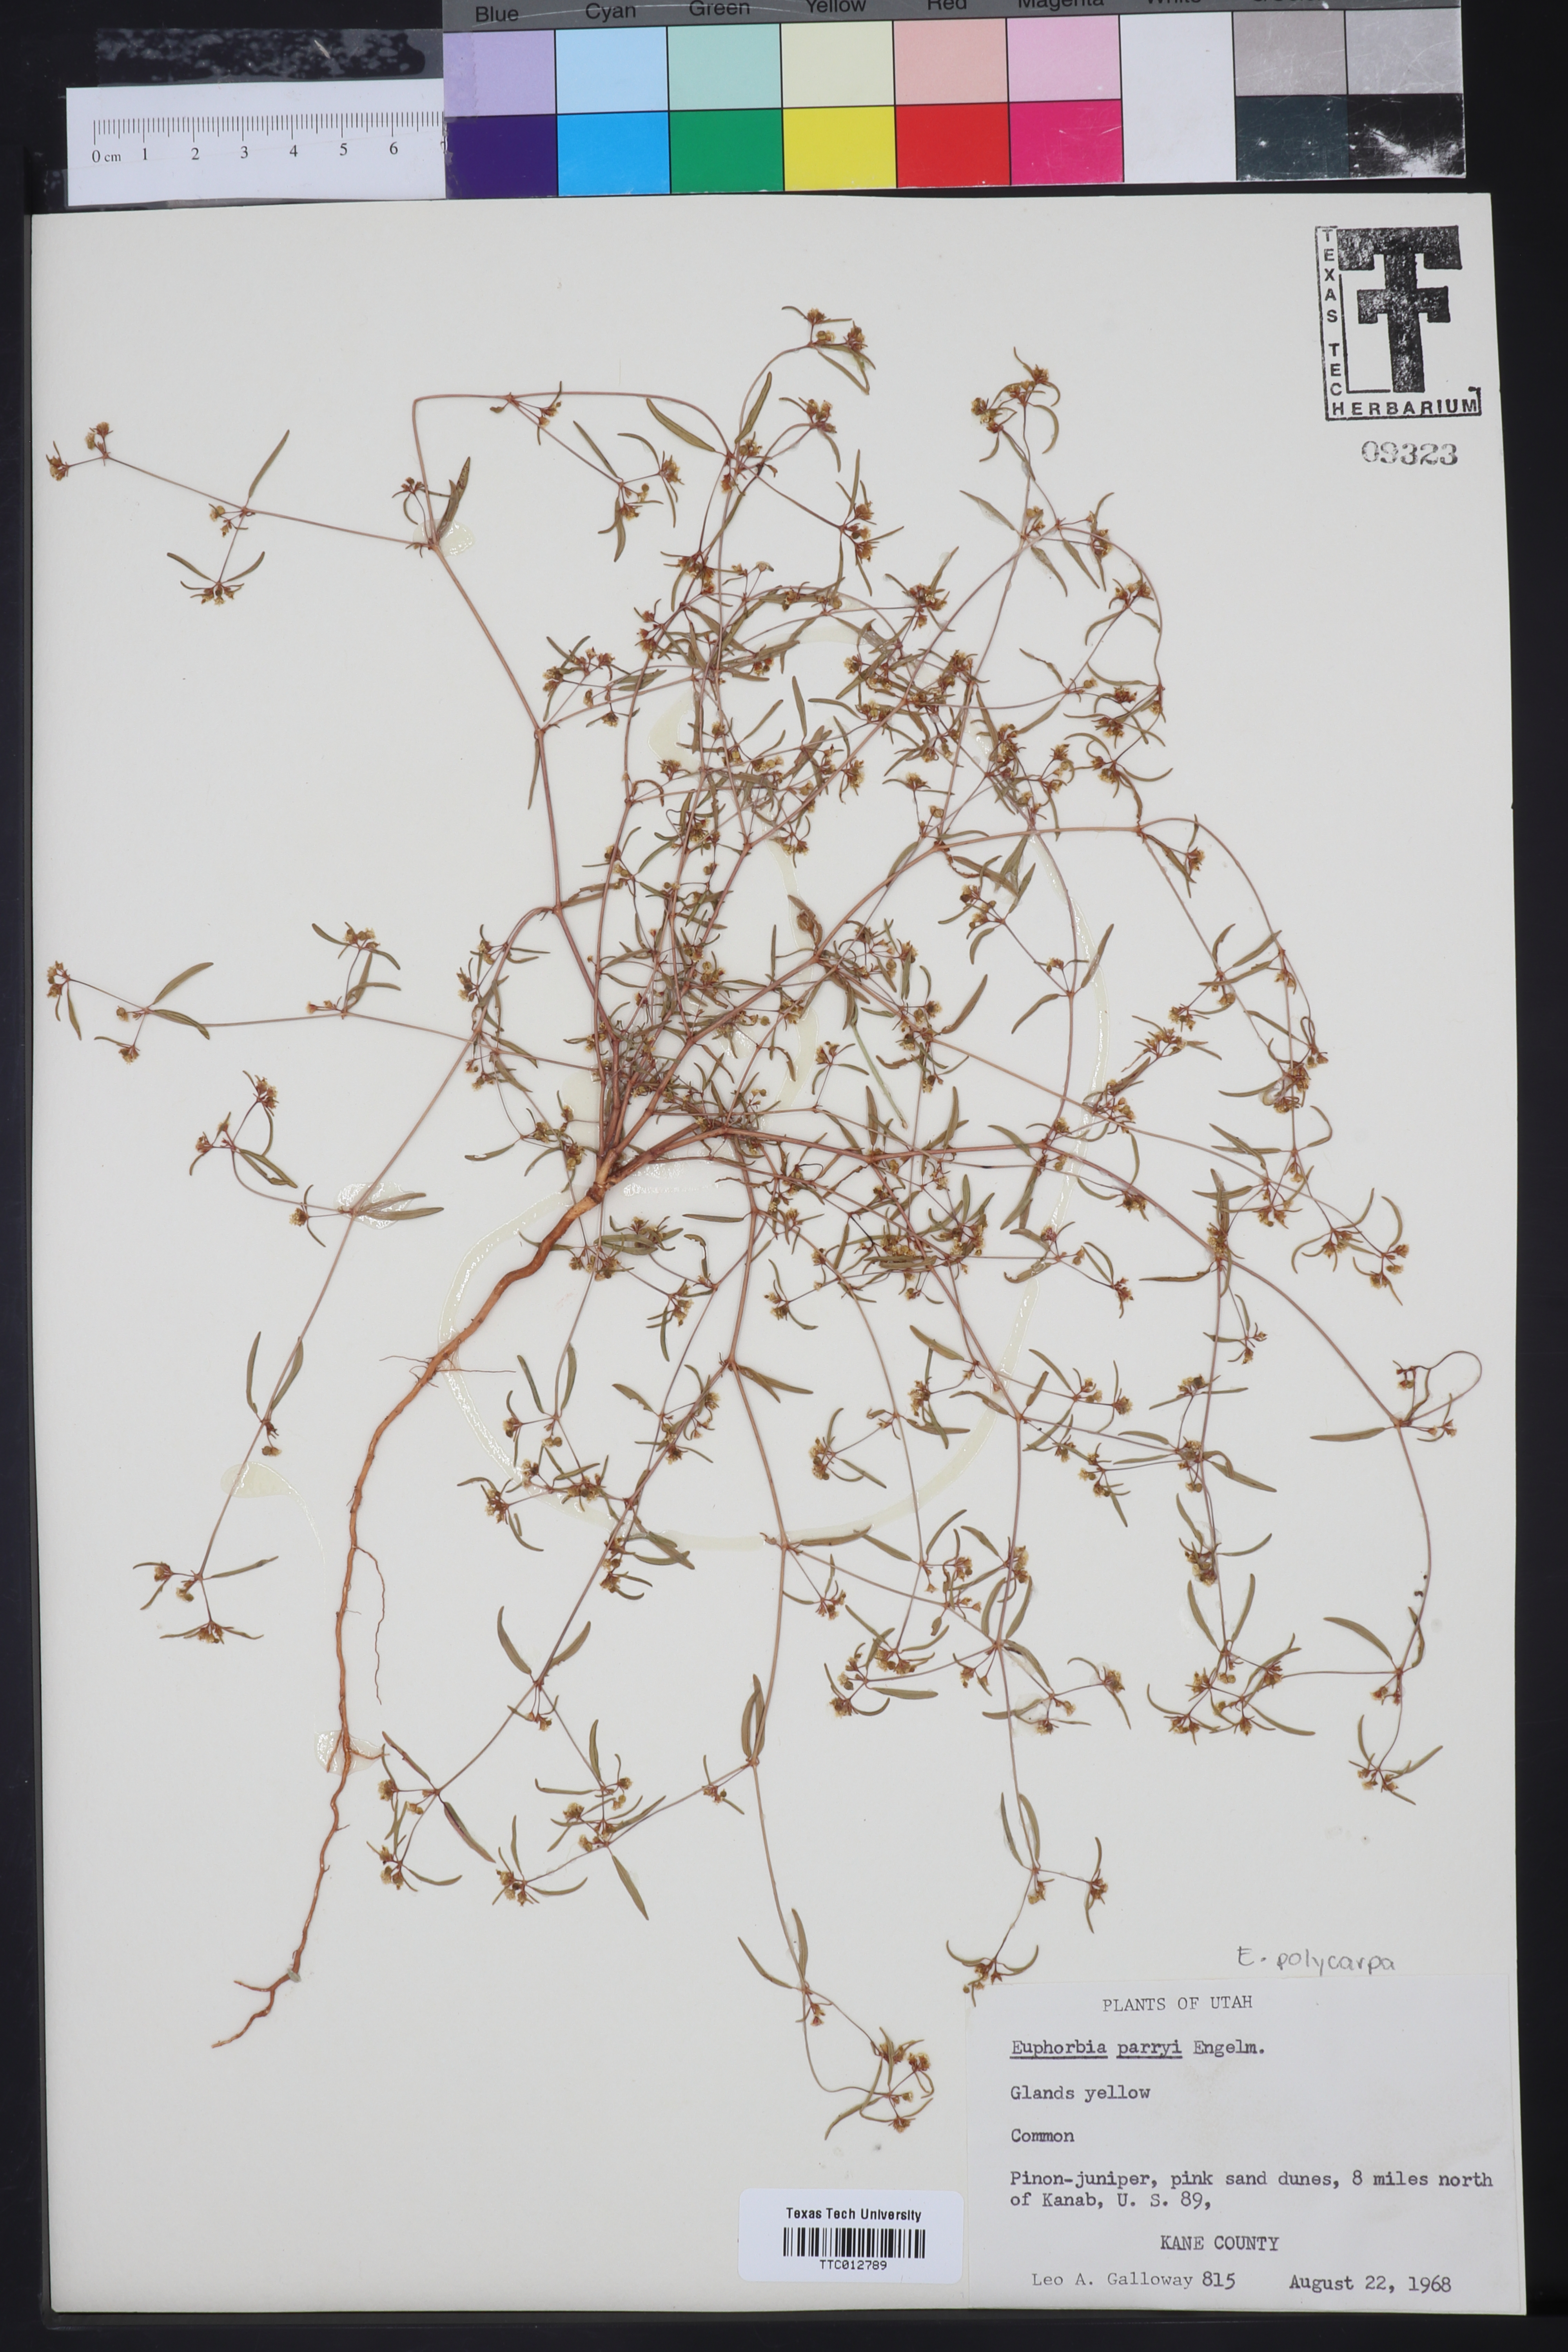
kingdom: Plantae
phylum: Tracheophyta
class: Magnoliopsida
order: Malpighiales
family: Euphorbiaceae
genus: Euphorbia
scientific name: Euphorbia parryi
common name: Dune spurge
